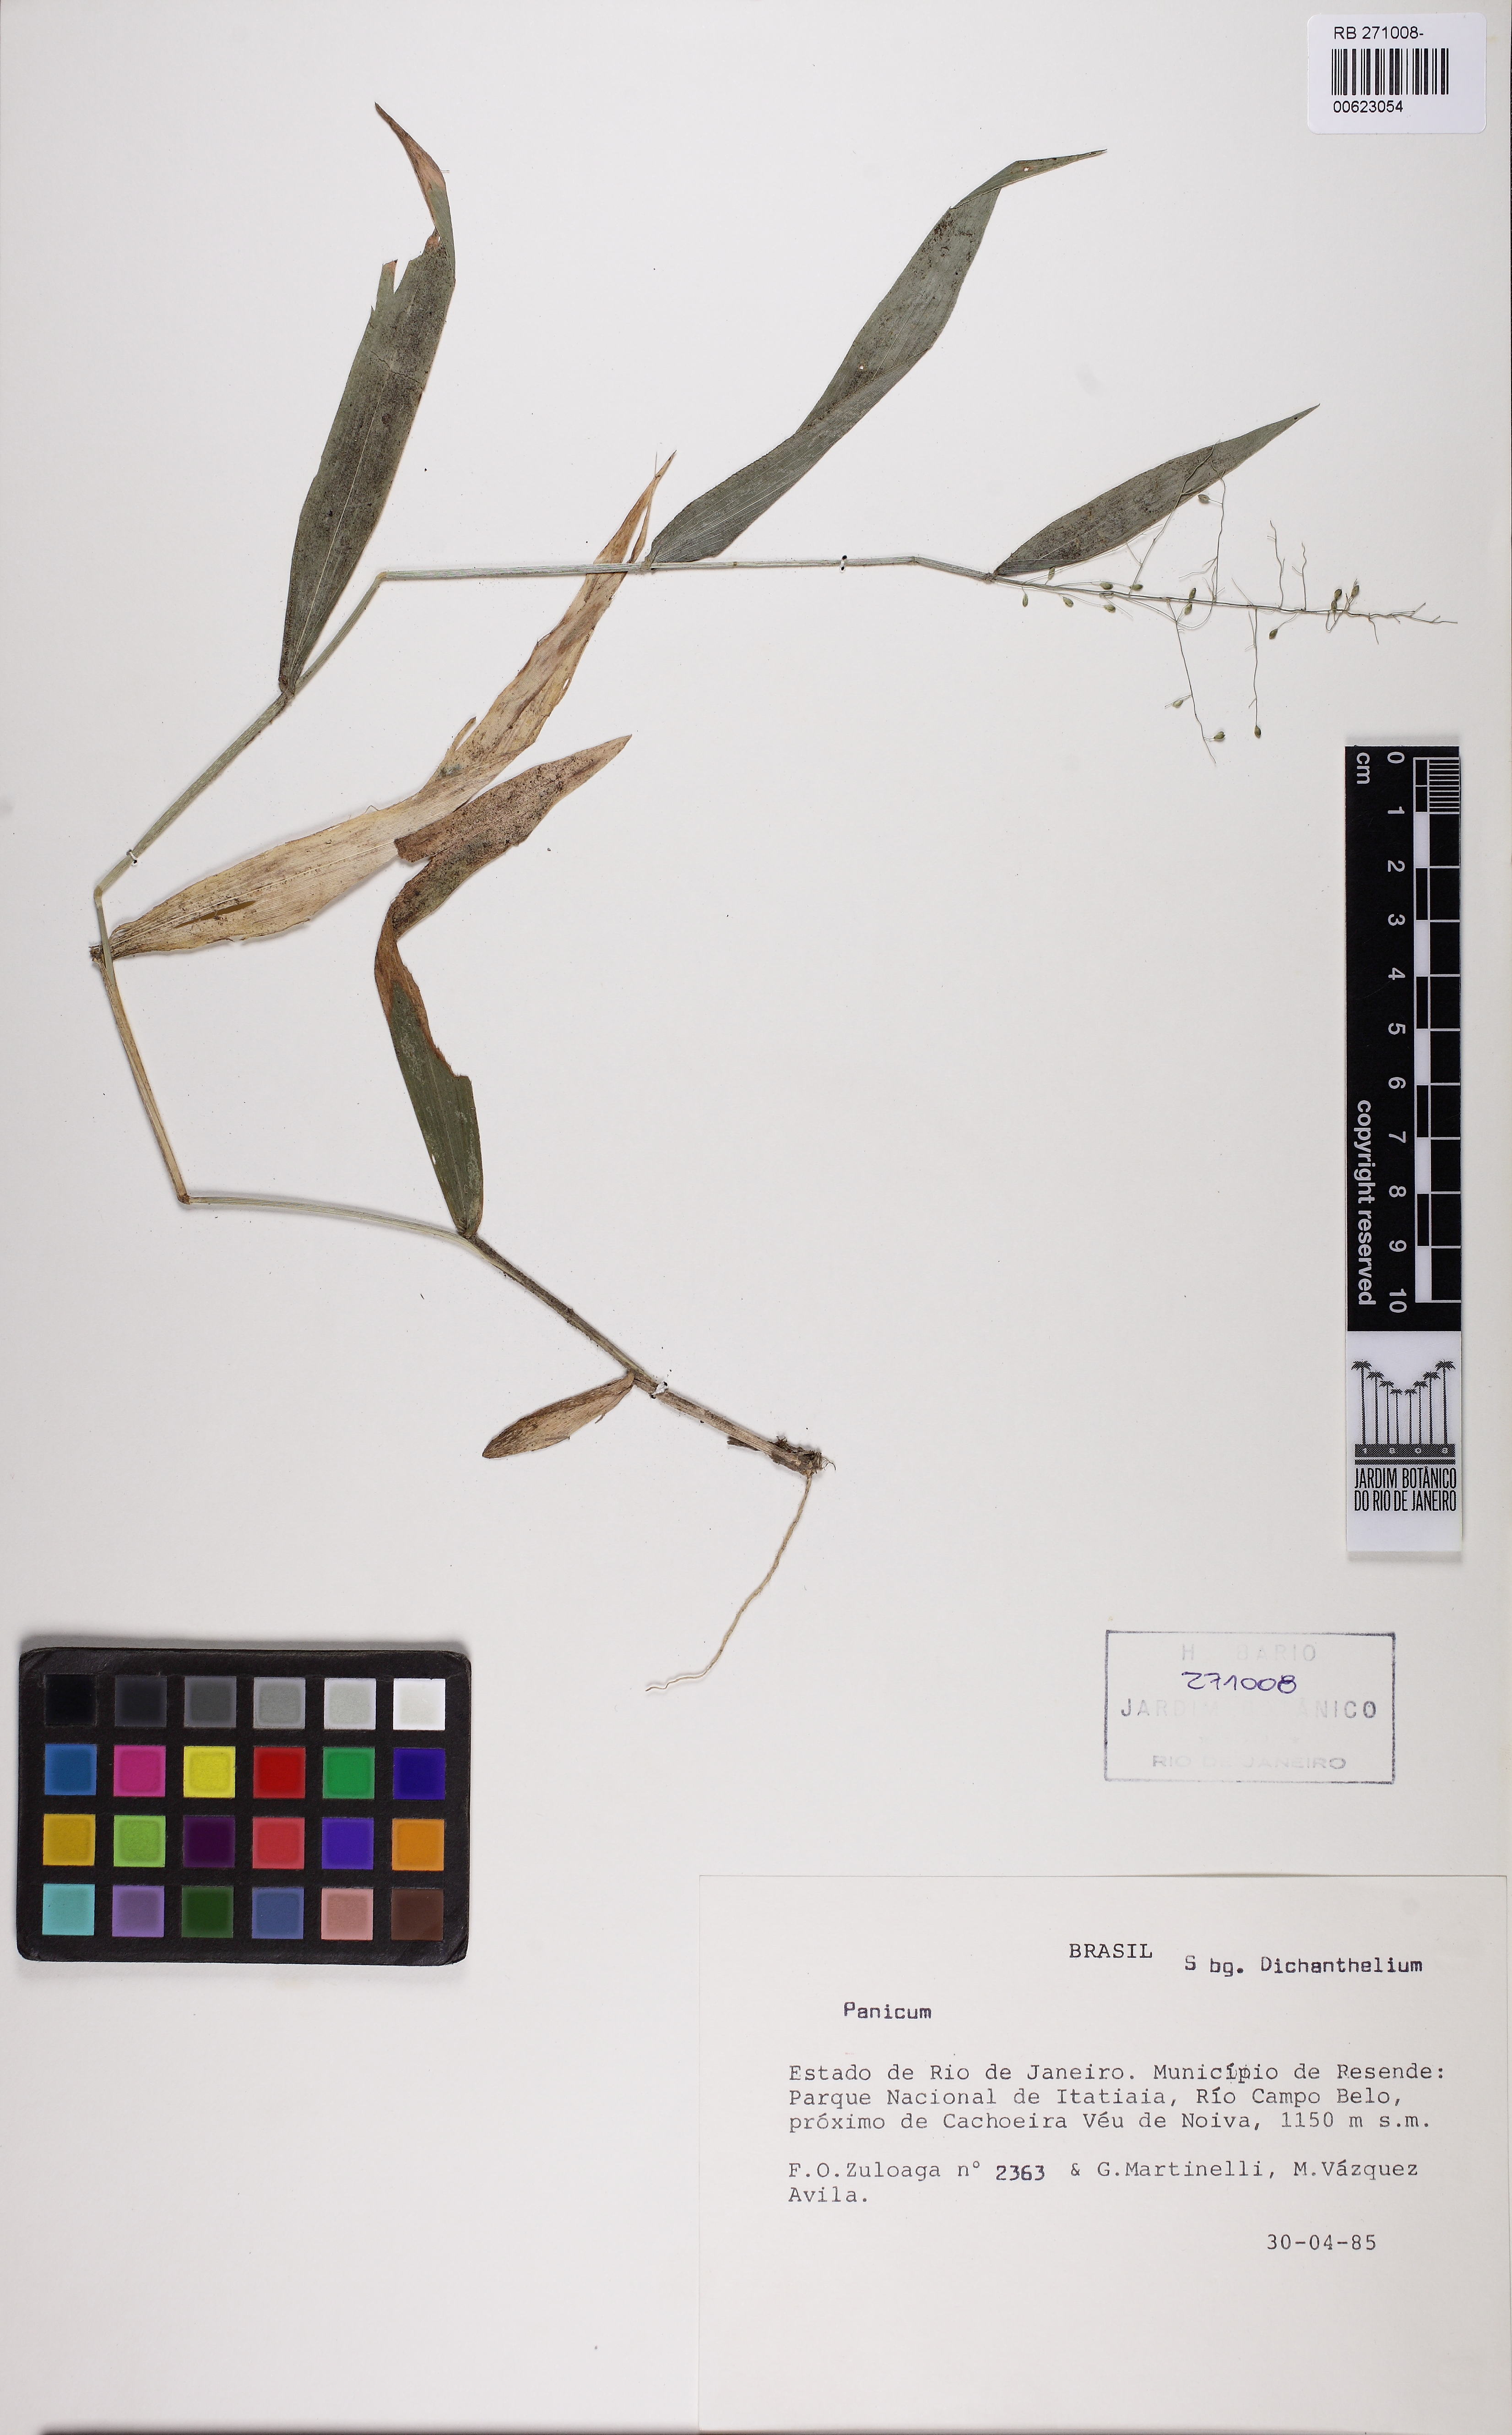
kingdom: Plantae
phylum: Tracheophyta
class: Liliopsida
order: Poales
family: Poaceae
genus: Dichanthelium
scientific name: Dichanthelium stigmosum
